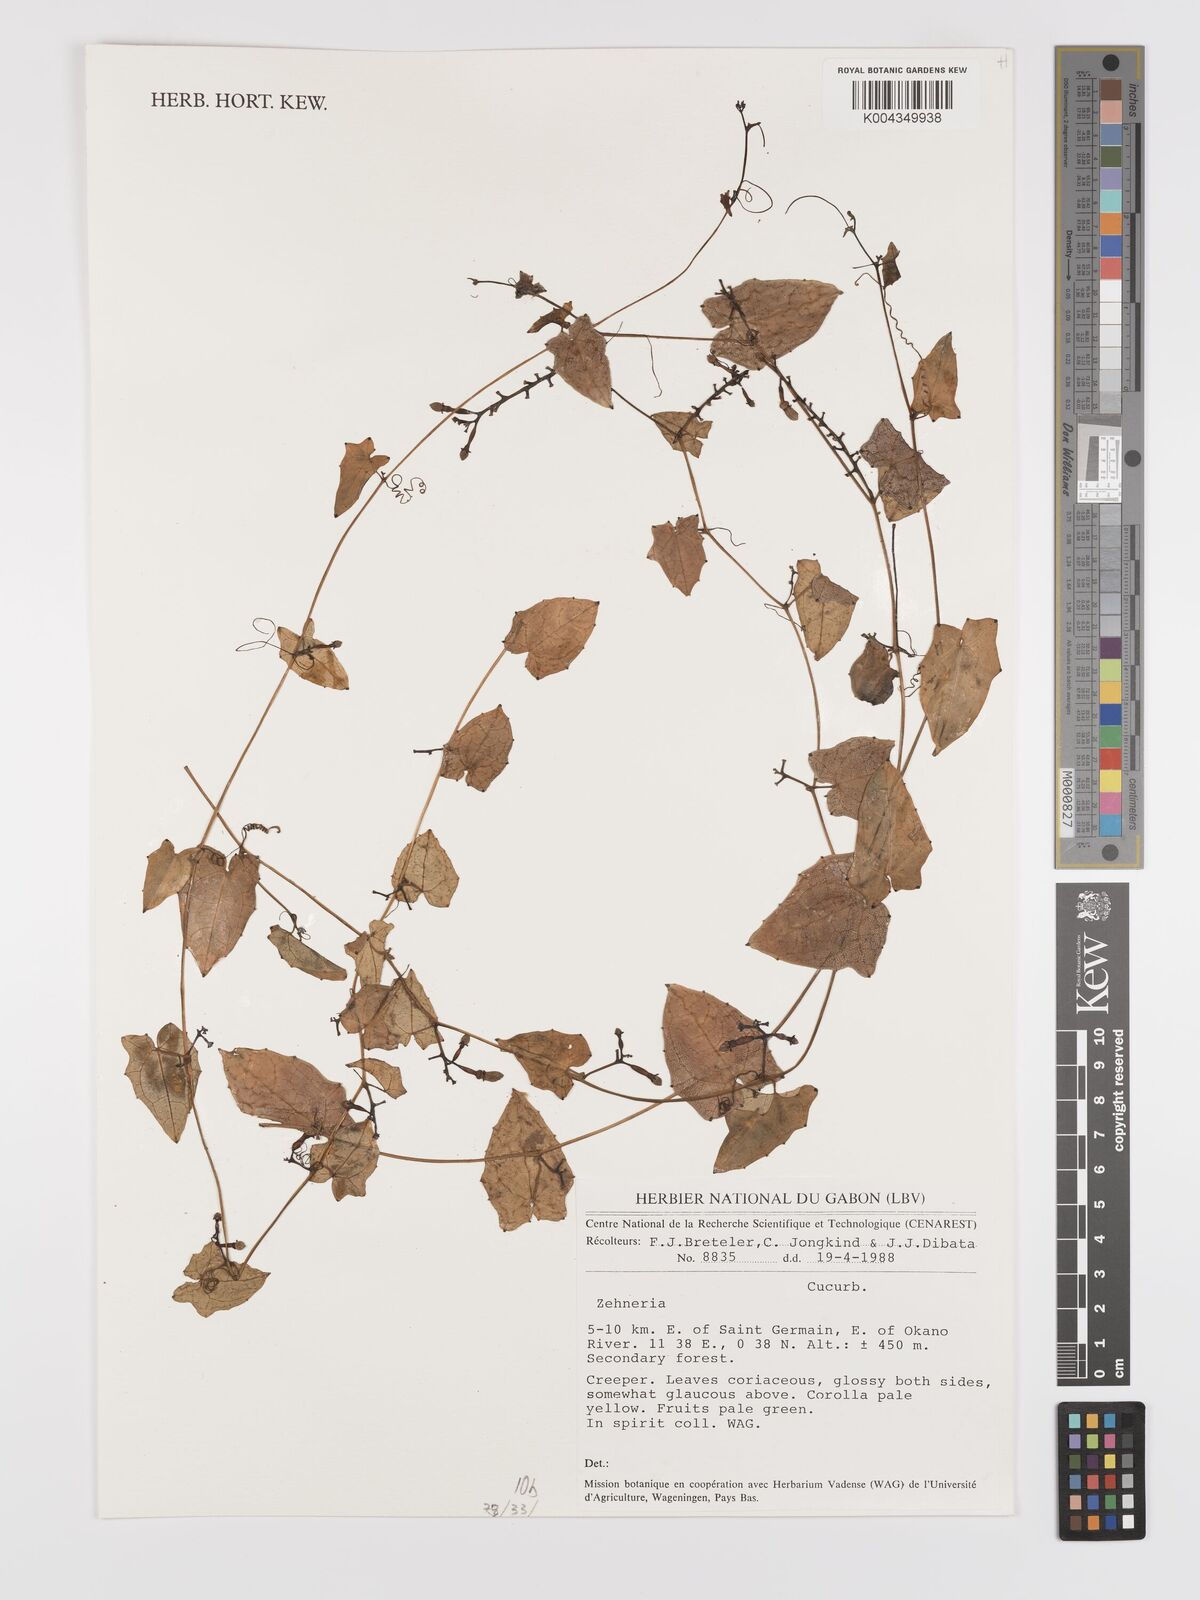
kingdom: Plantae
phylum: Tracheophyta
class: Magnoliopsida
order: Cucurbitales
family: Cucurbitaceae
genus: Zehneria
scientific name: Zehneria thwaitesii
